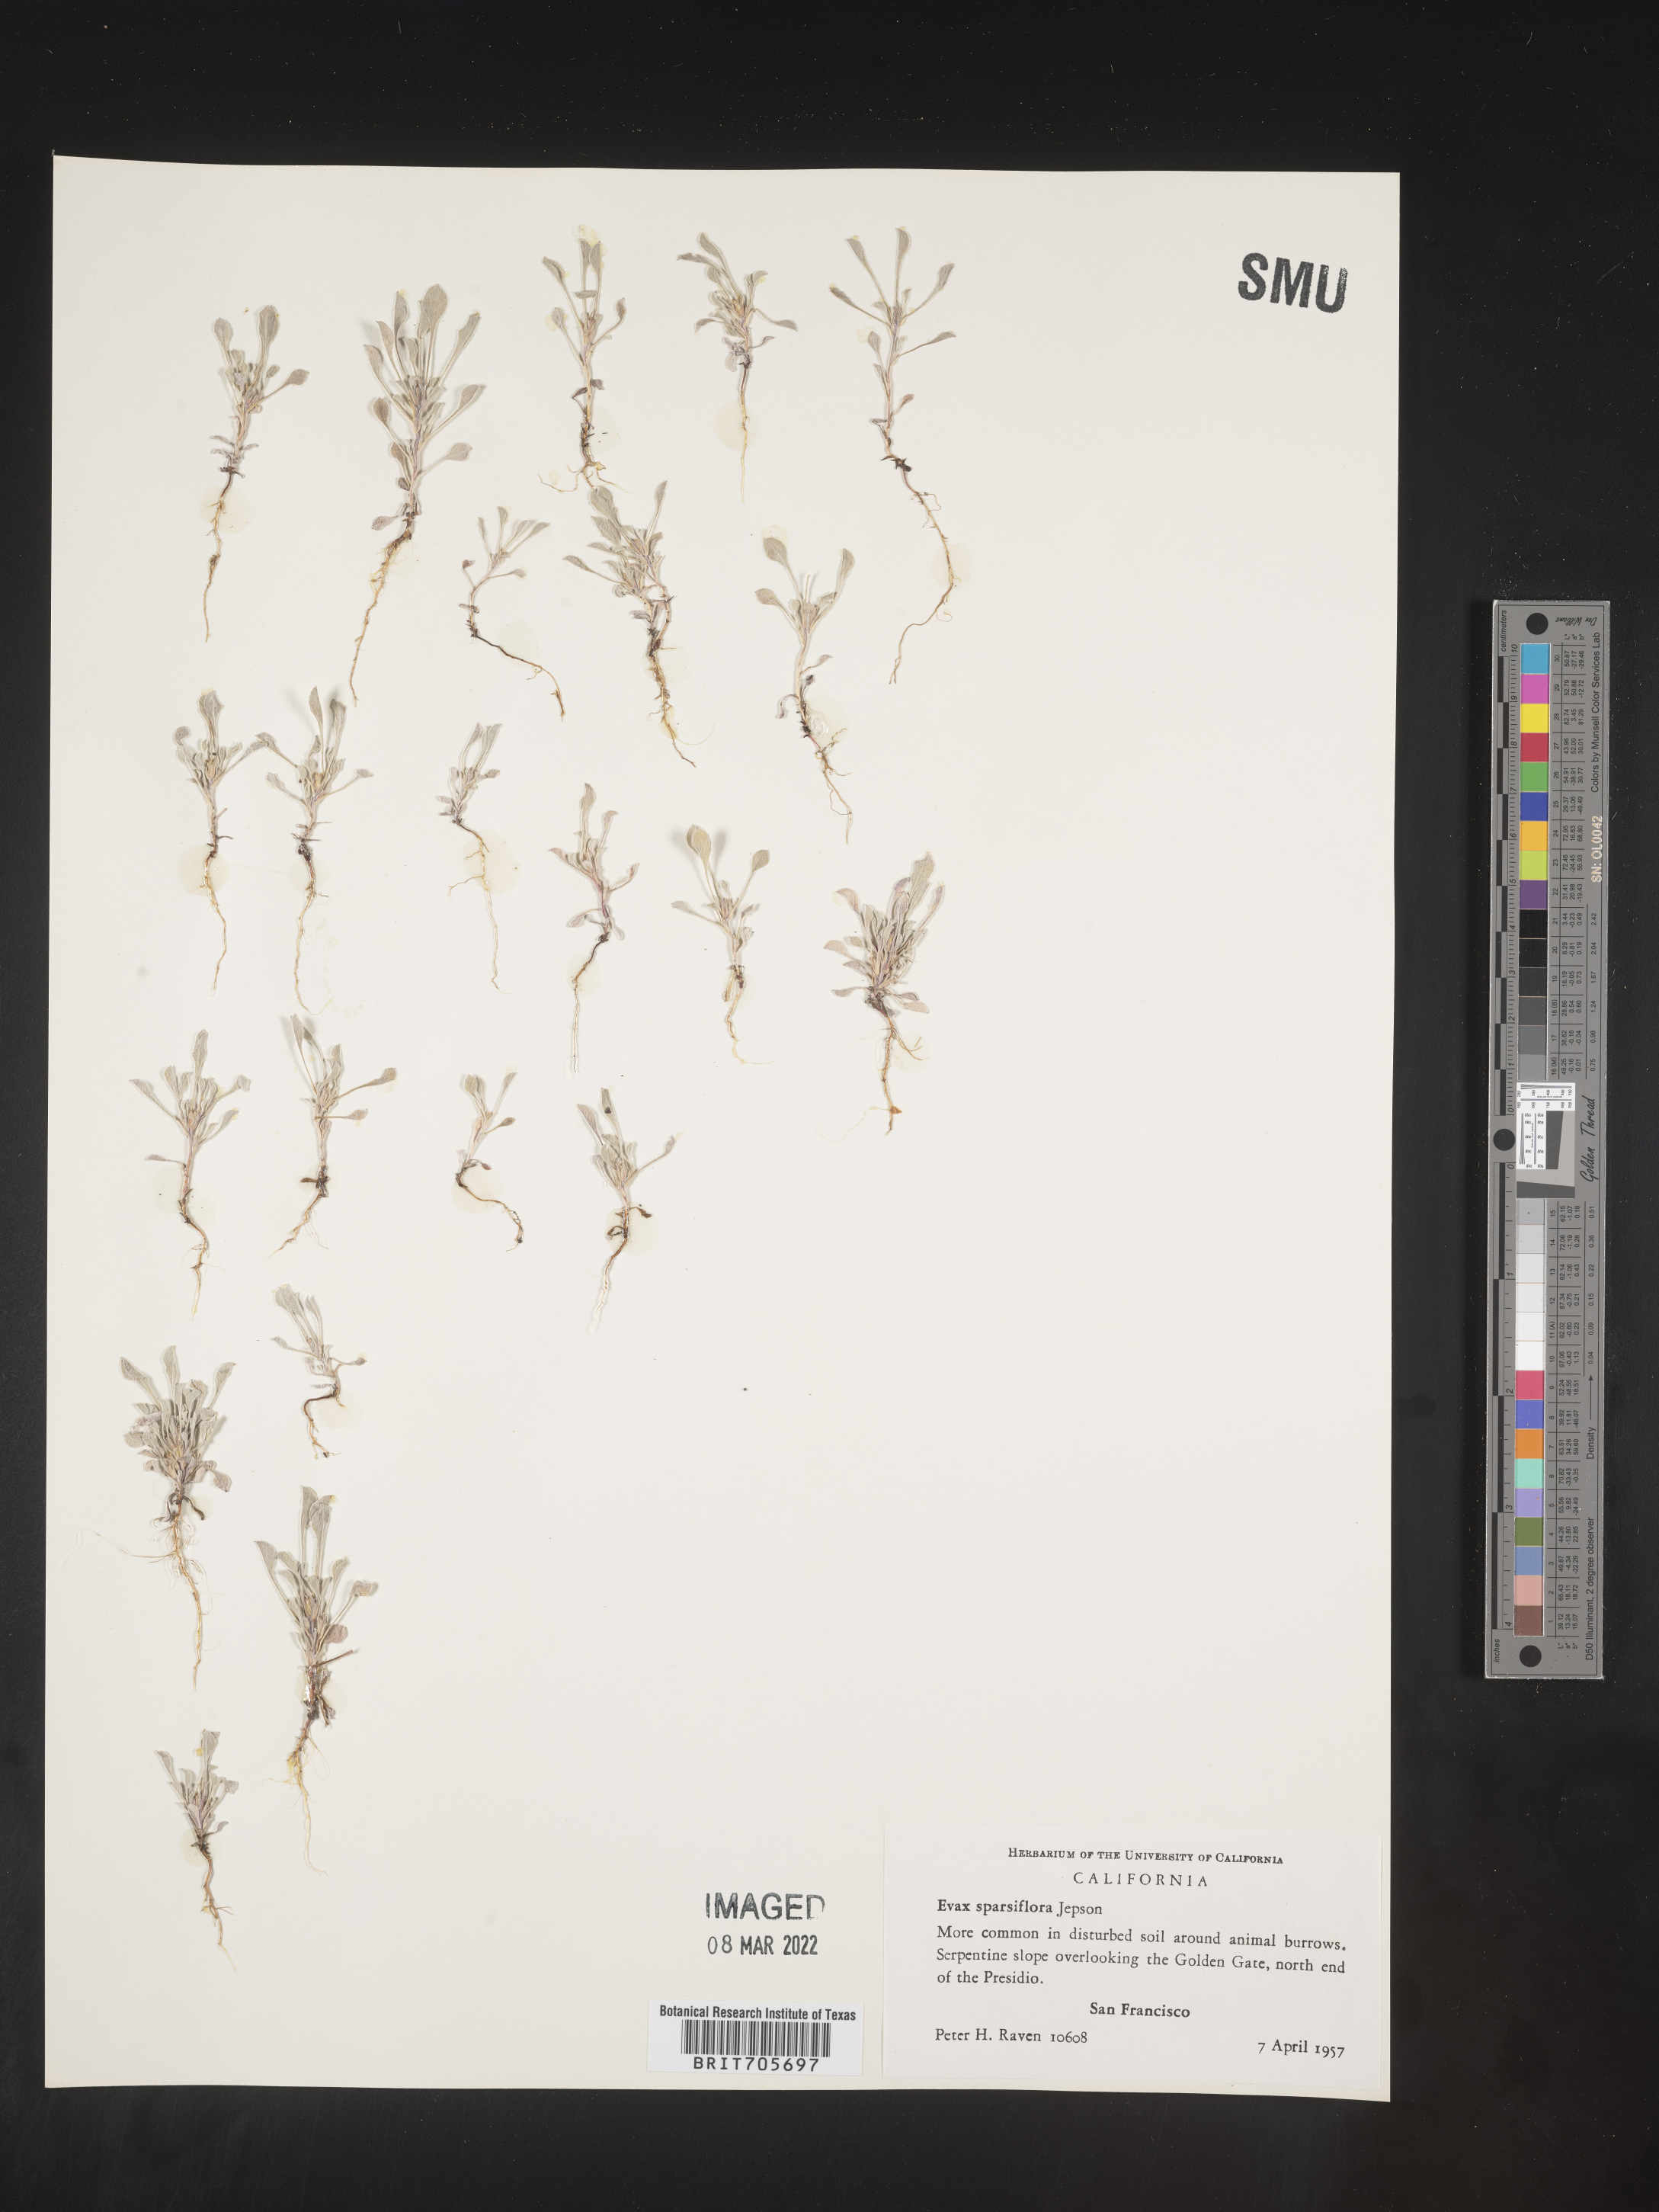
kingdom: Plantae
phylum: Tracheophyta
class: Magnoliopsida
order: Asterales
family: Asteraceae
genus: Hesperevax
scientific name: Hesperevax sparsiflora
